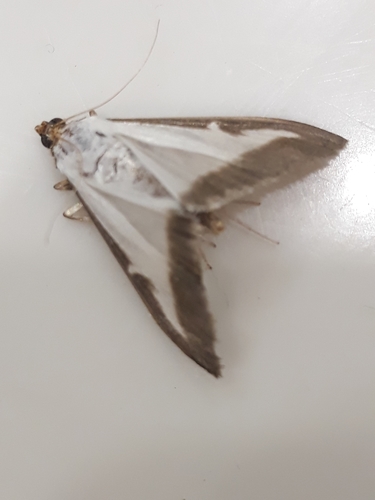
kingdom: Animalia
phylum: Arthropoda
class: Insecta
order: Lepidoptera
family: Crambidae
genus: Cydalima
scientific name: Cydalima perspectalis
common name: Box tree moth
